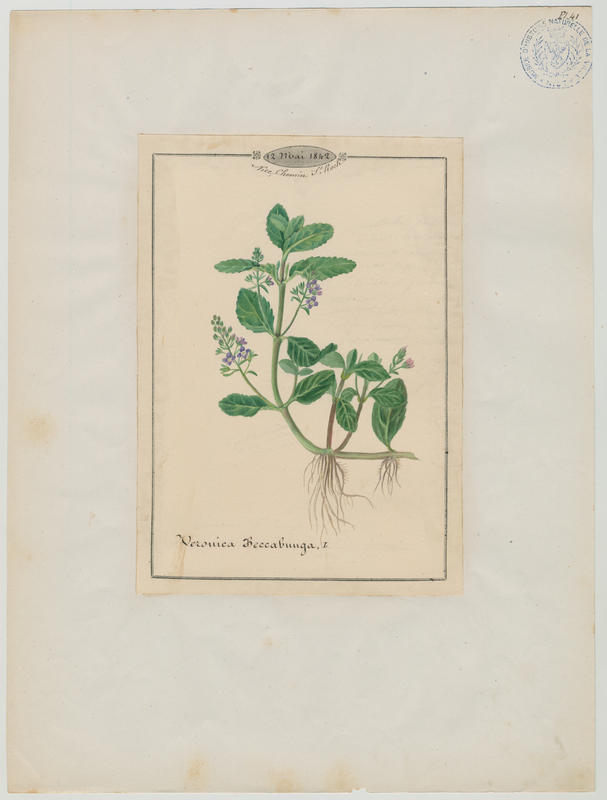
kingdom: Plantae
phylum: Tracheophyta
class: Magnoliopsida
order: Lamiales
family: Plantaginaceae
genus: Veronica
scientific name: Veronica beccabunga
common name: Brooklime
